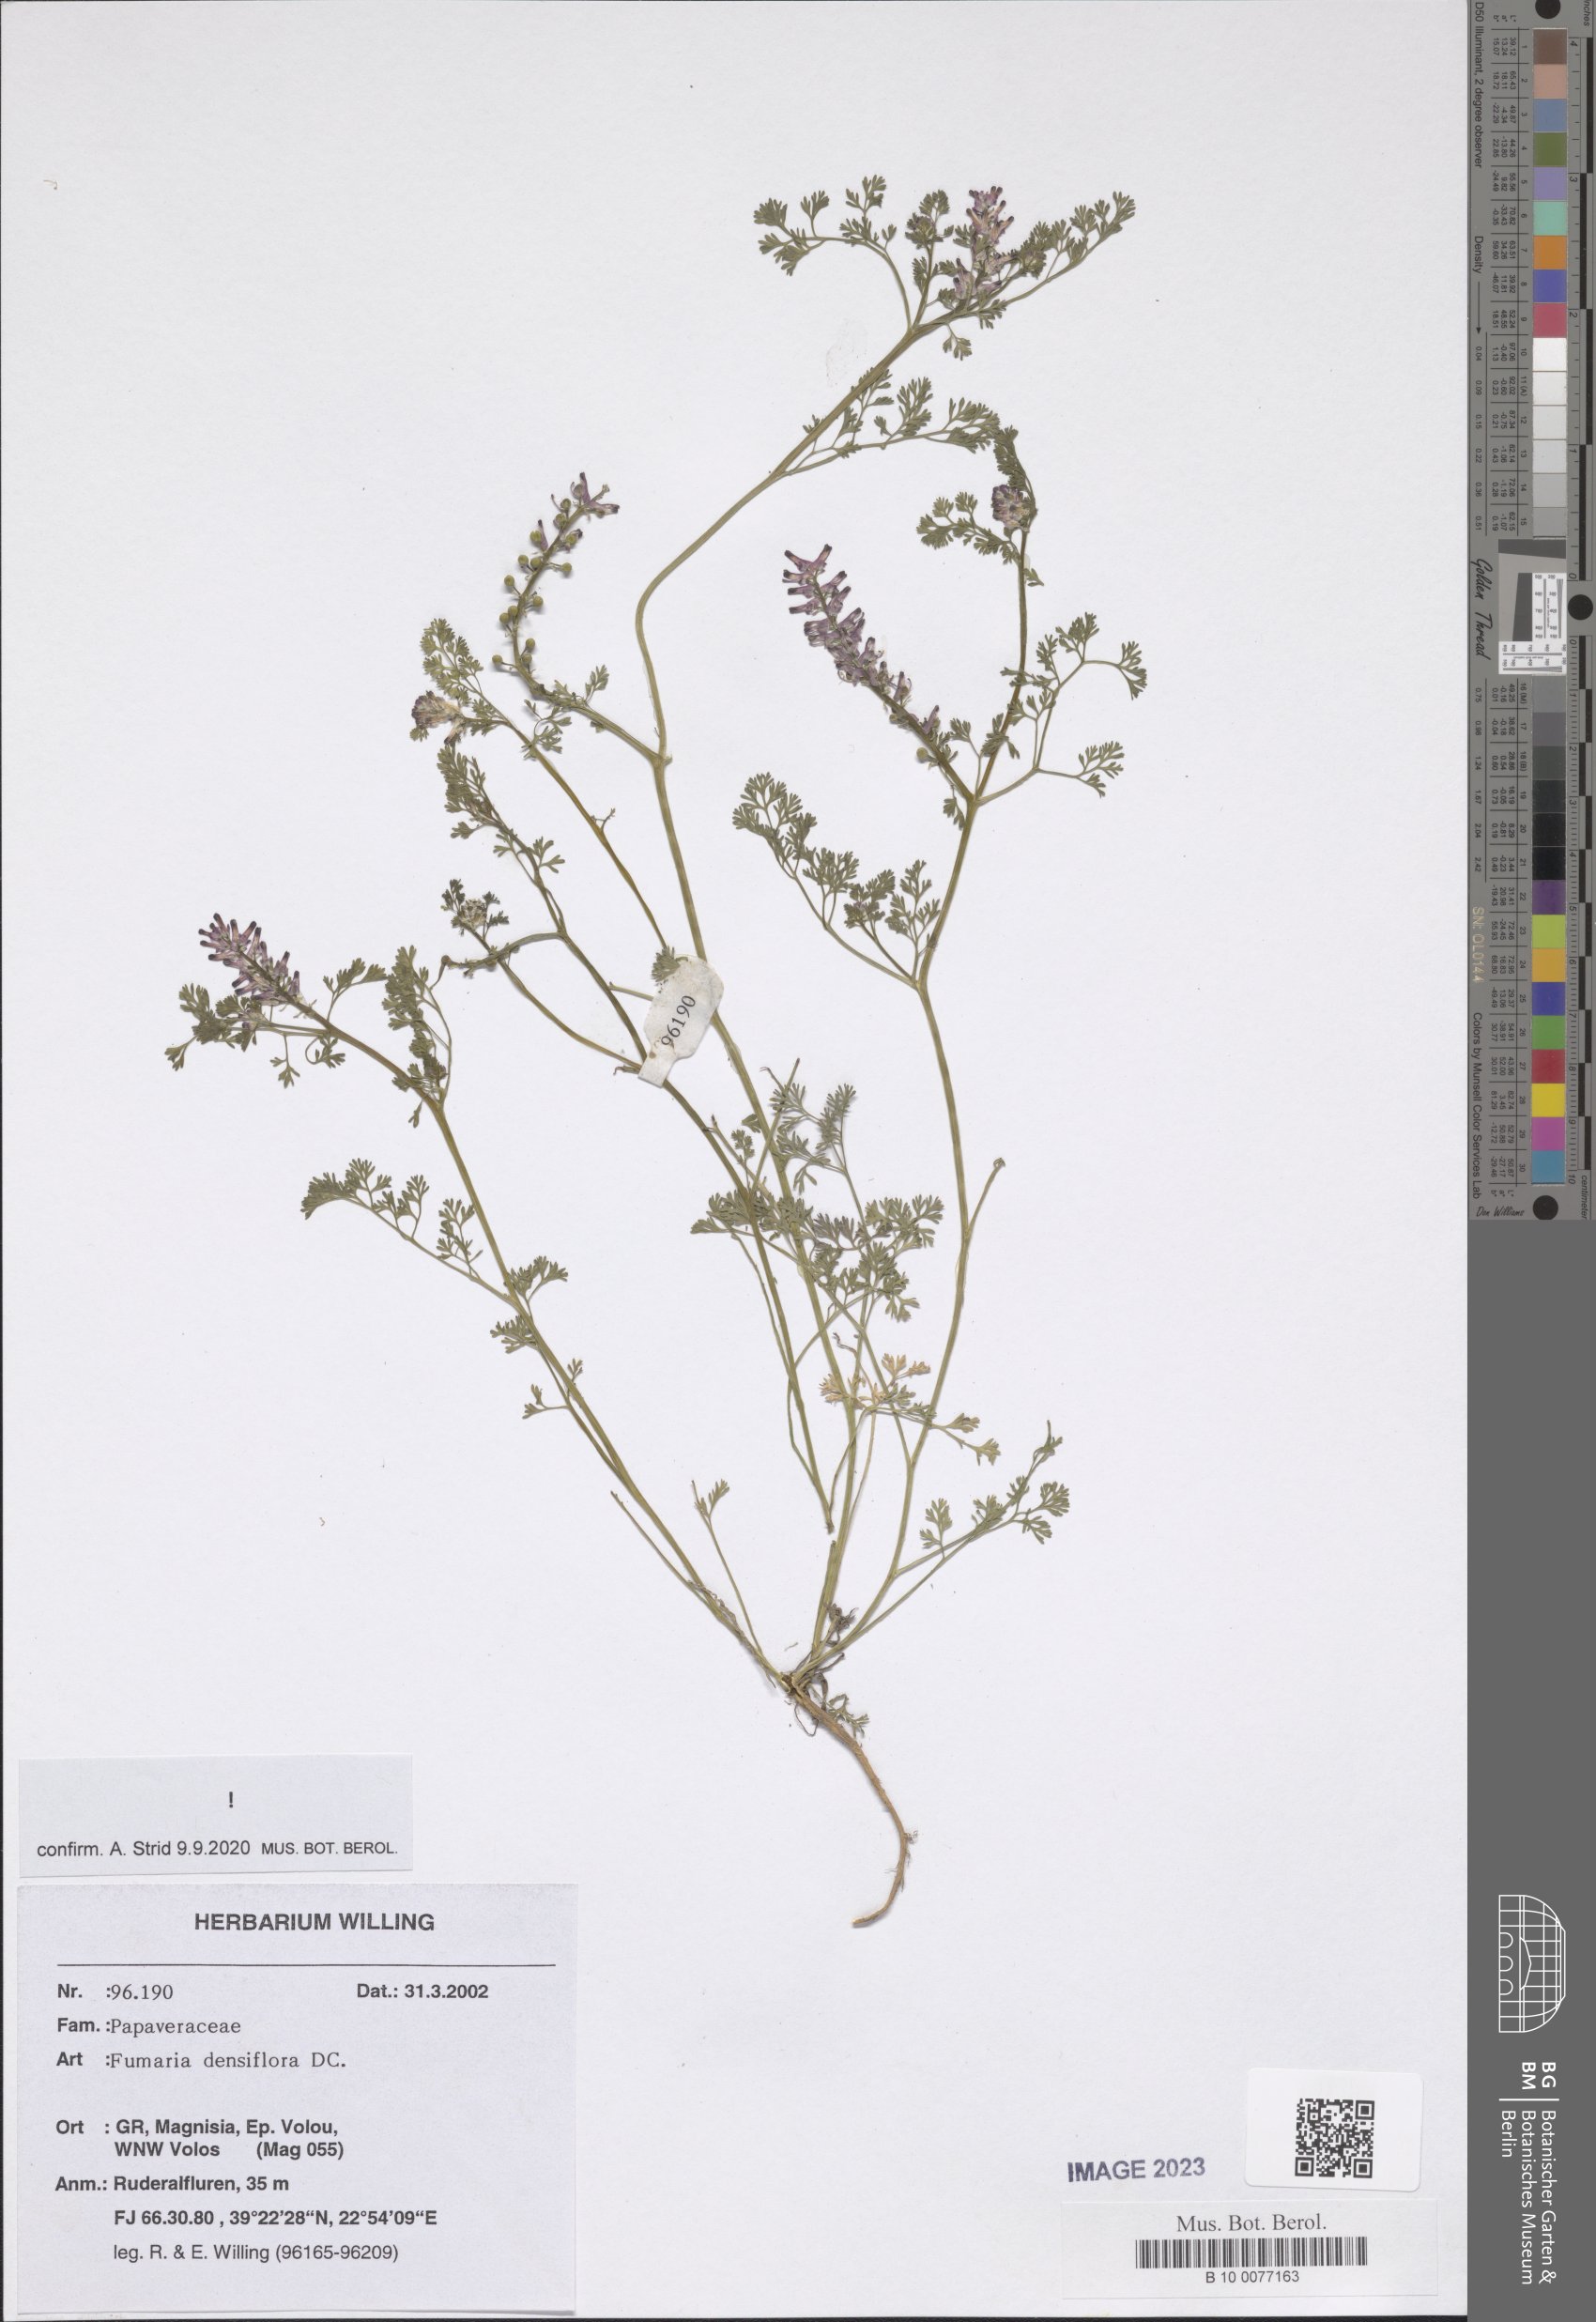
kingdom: Plantae
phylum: Tracheophyta
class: Magnoliopsida
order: Ranunculales
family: Papaveraceae
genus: Fumaria
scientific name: Fumaria densiflora
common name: Dense-flowered fumitory
